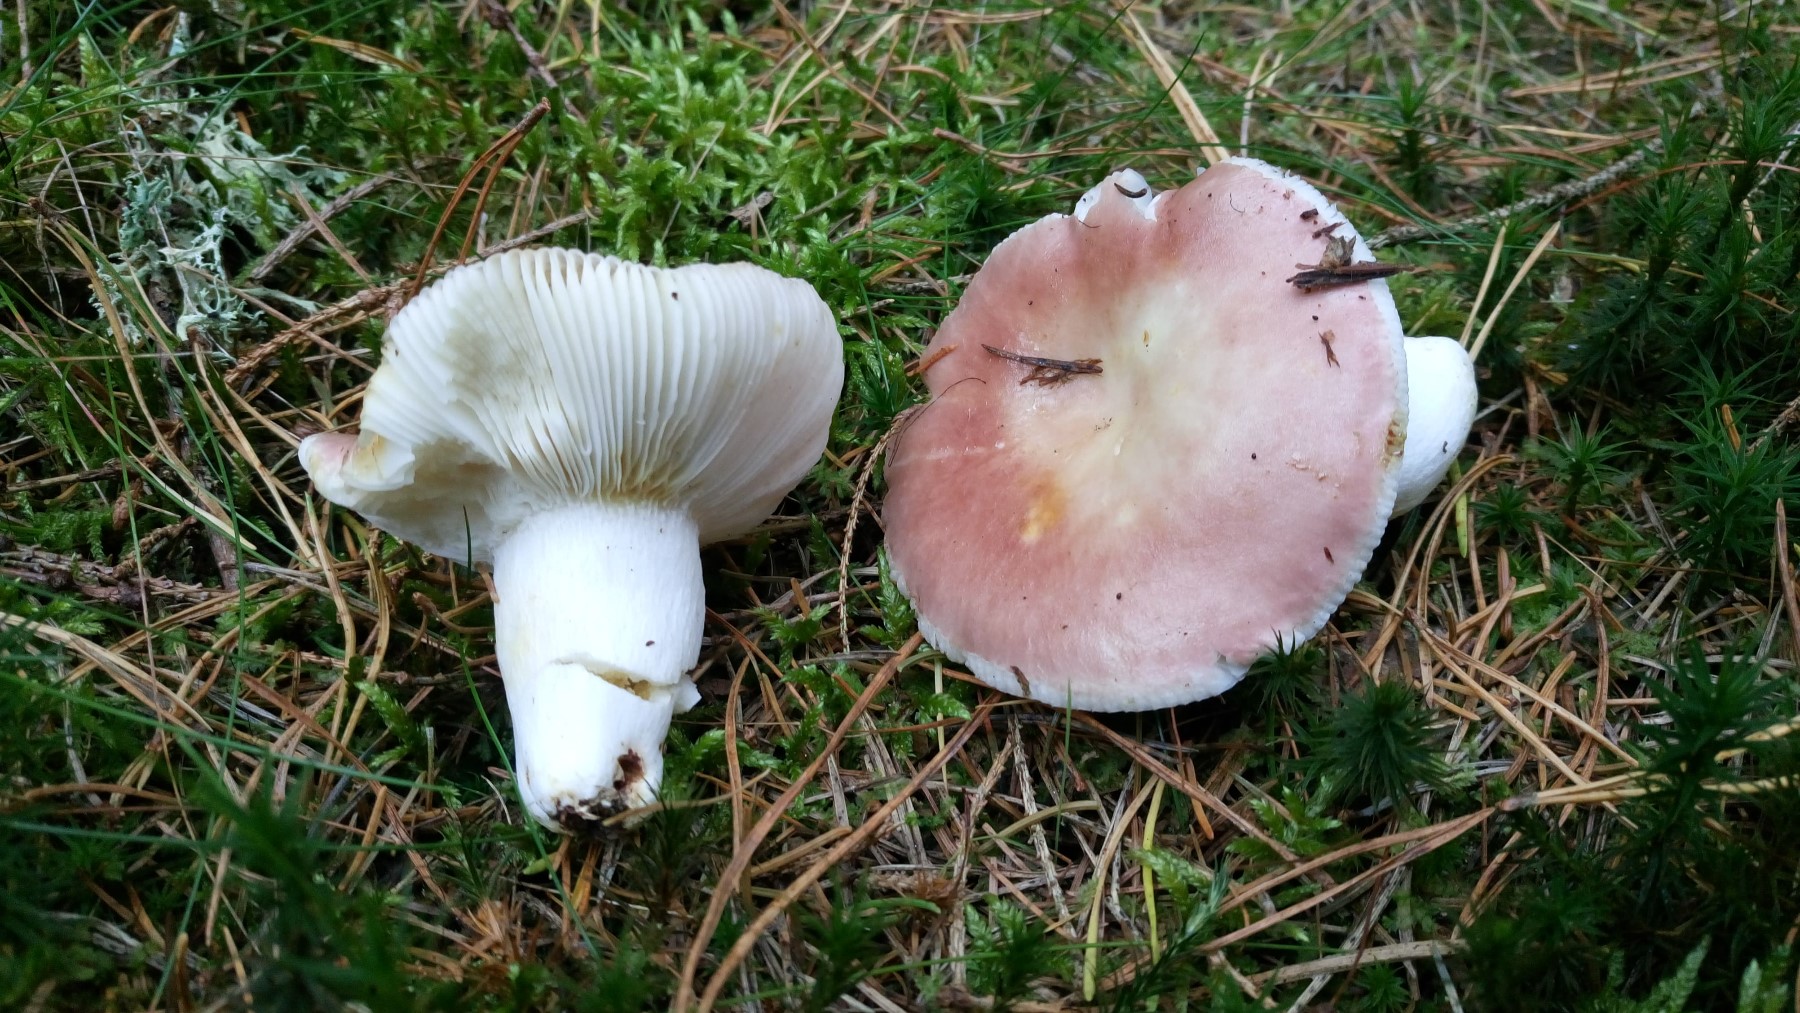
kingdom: Fungi
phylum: Basidiomycota
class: Agaricomycetes
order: Russulales
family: Russulaceae
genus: Russula
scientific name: Russula vesca
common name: spiselig skørhat
